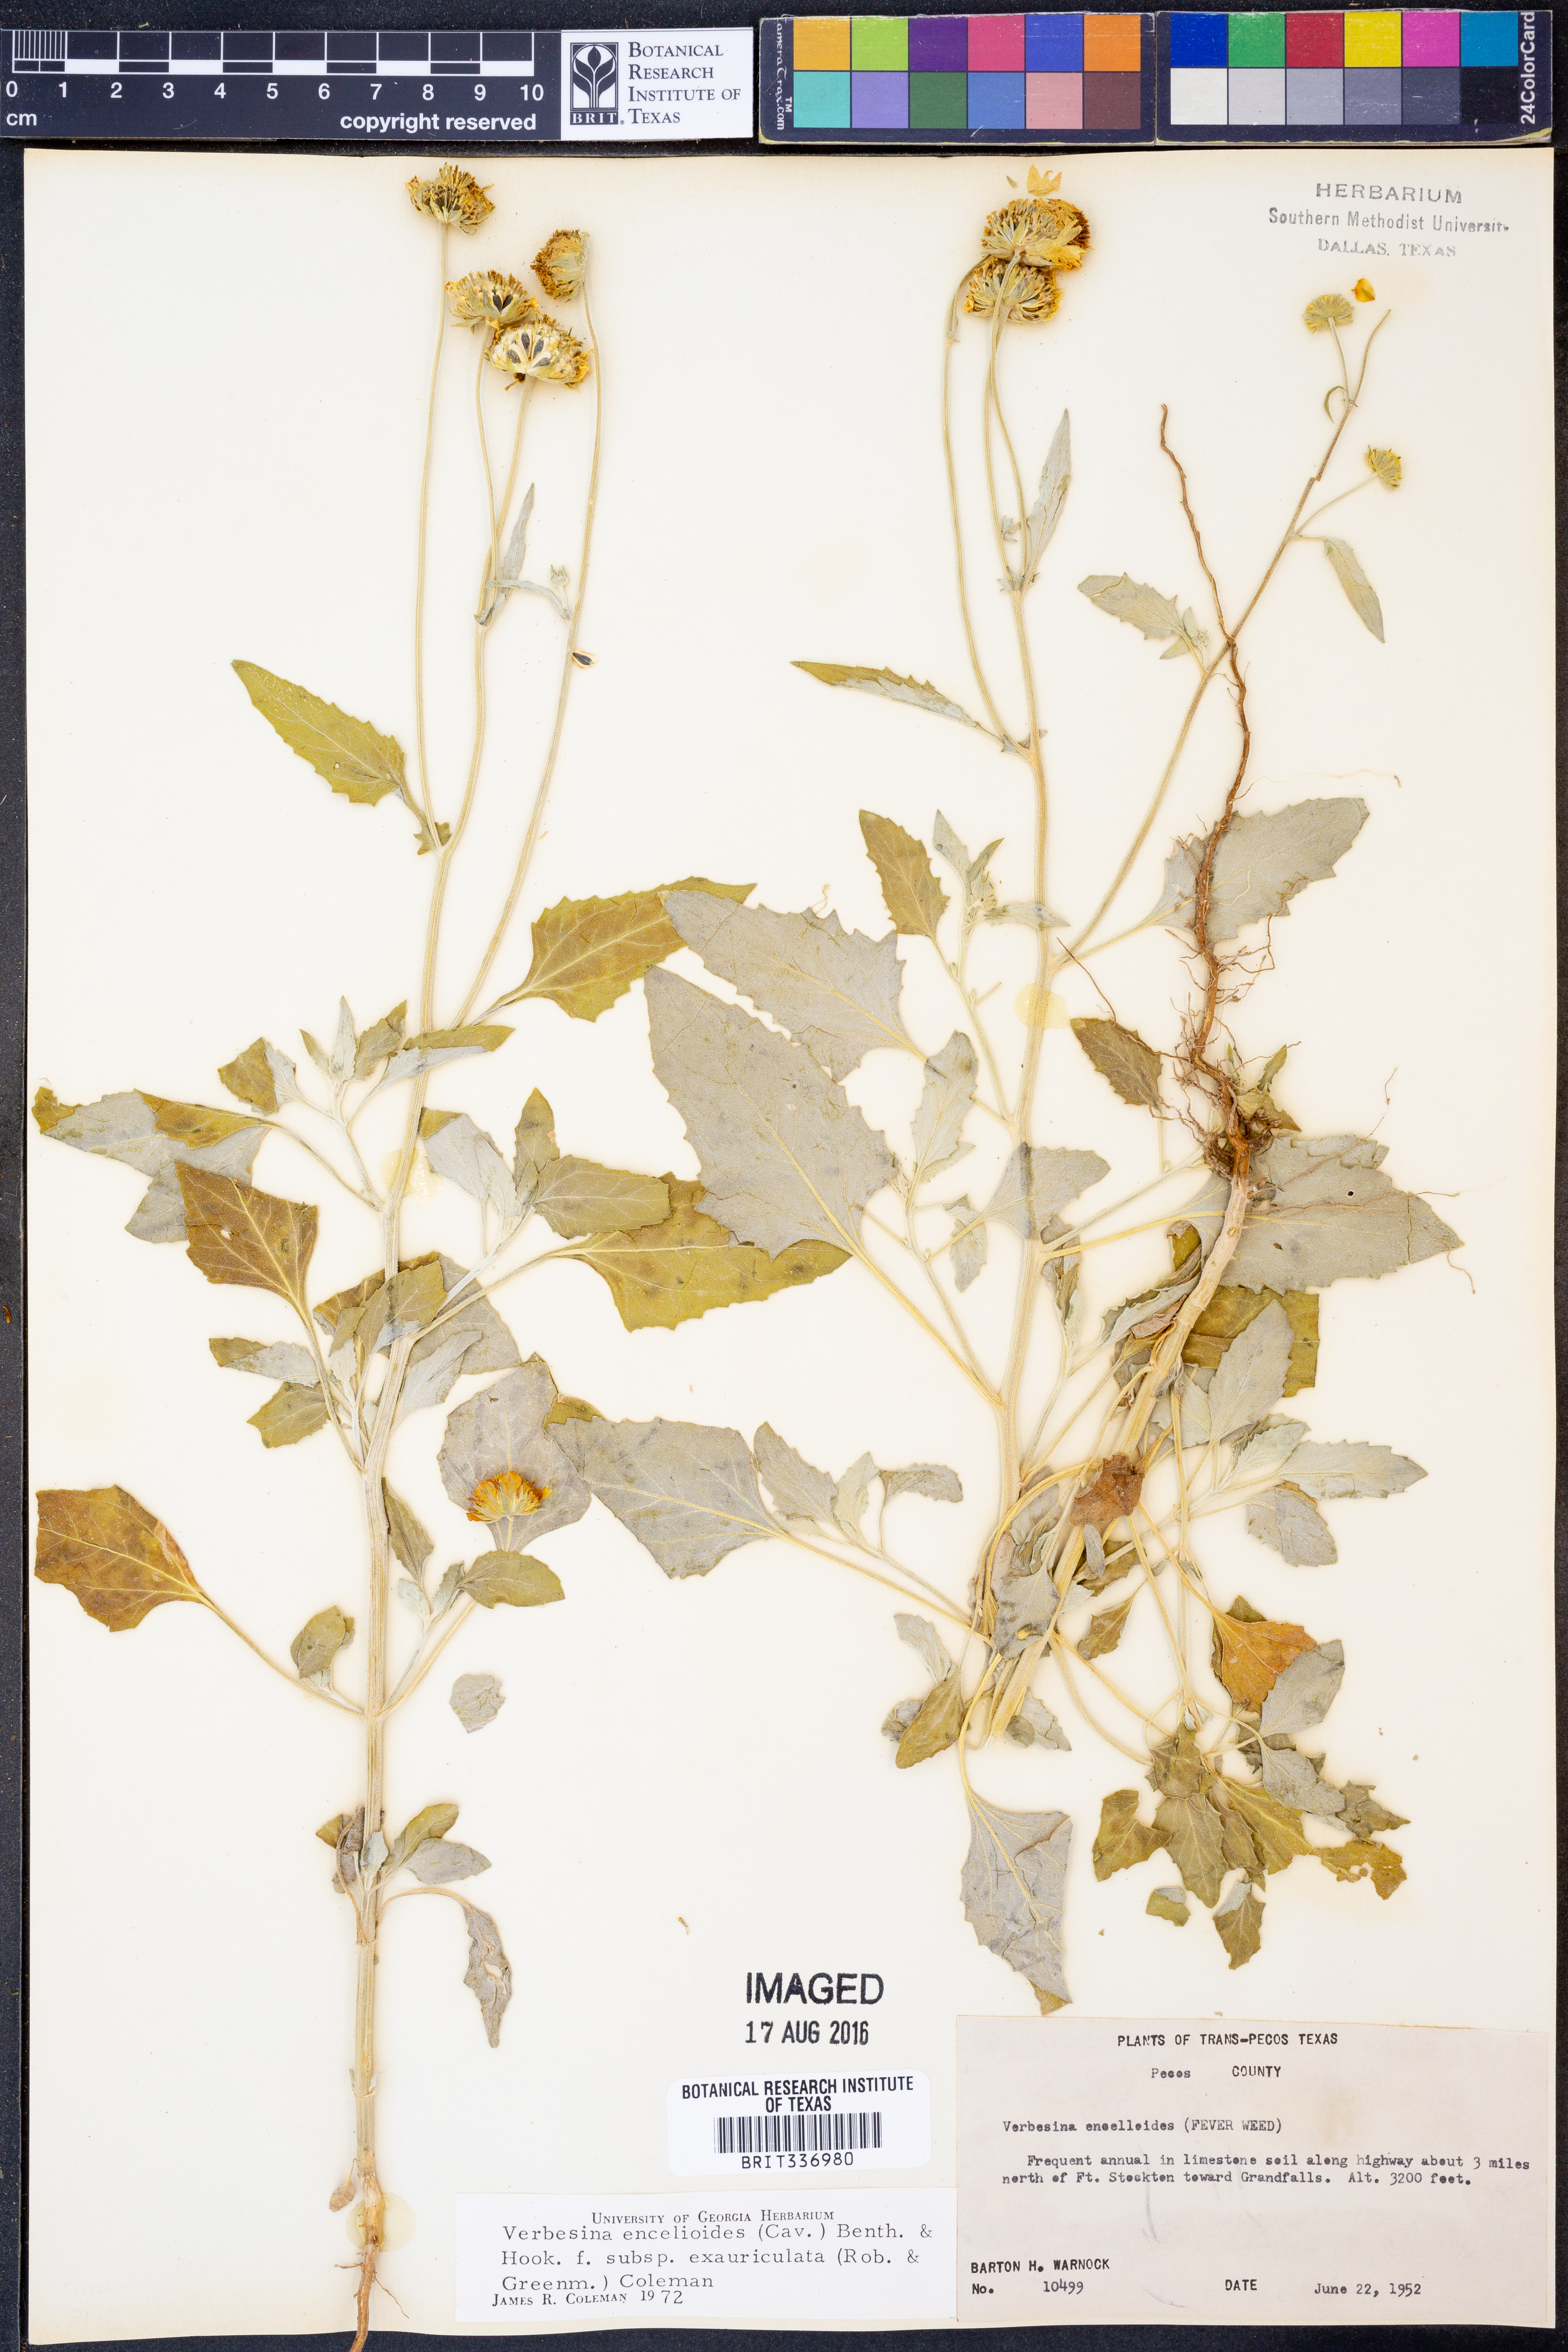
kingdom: Plantae
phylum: Tracheophyta
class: Magnoliopsida
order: Asterales
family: Asteraceae
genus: Verbesina
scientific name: Verbesina encelioides
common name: Golden crownbeard
